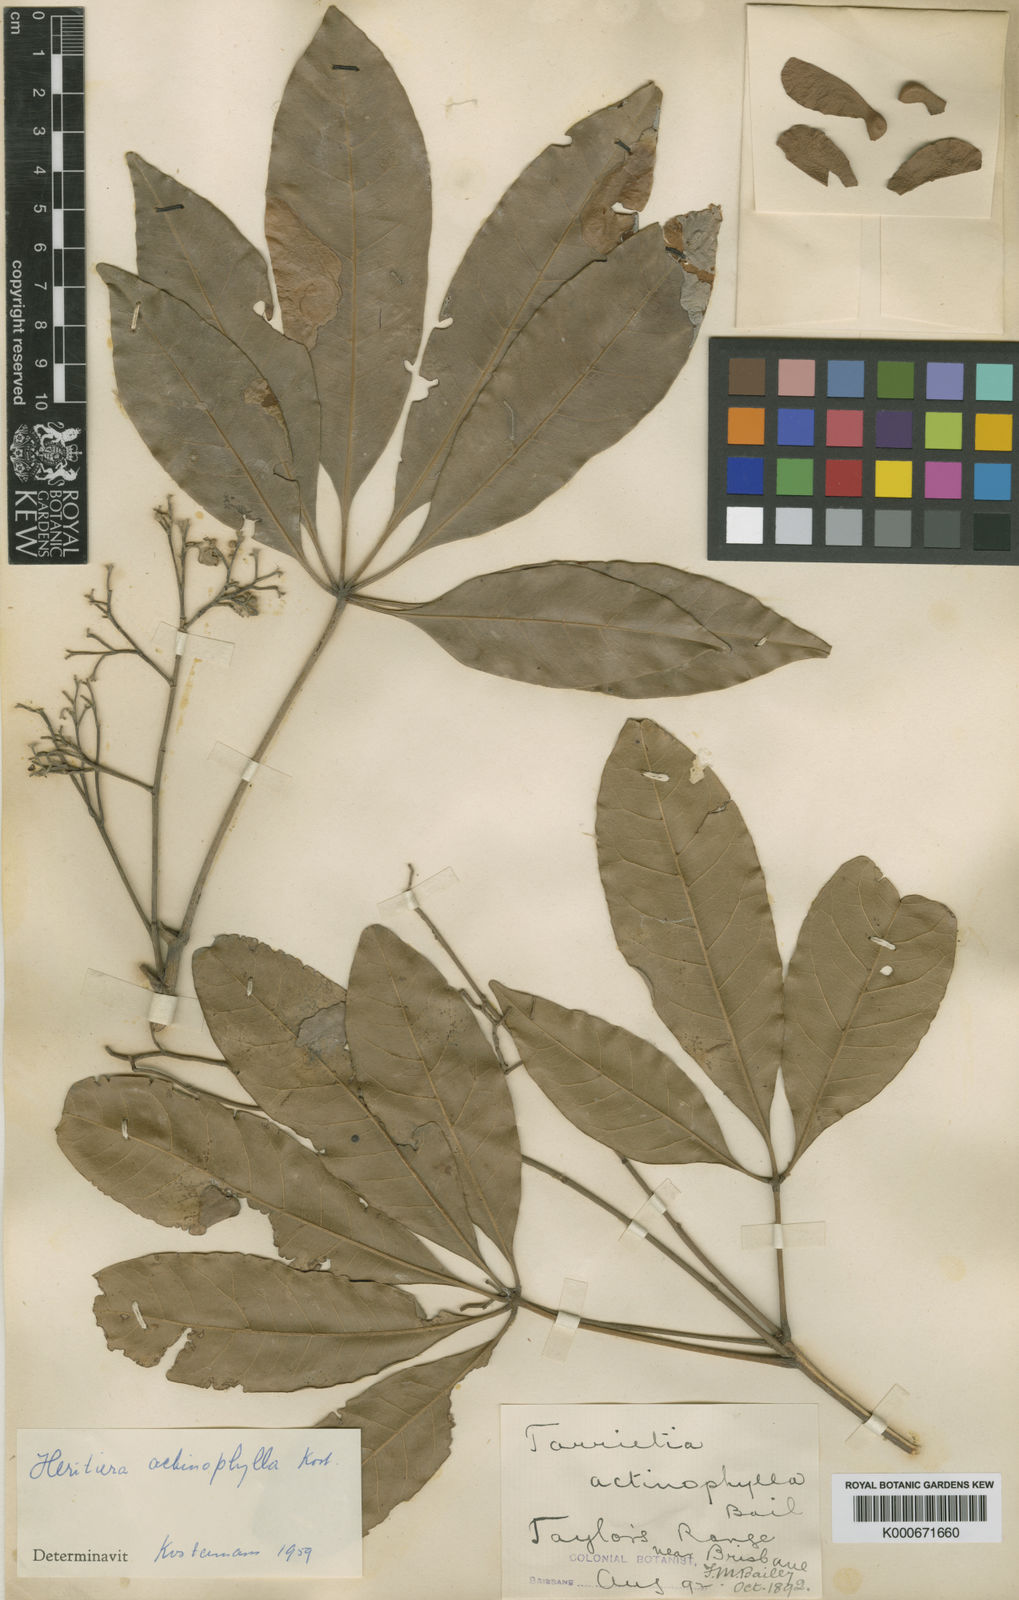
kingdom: Plantae
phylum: Tracheophyta
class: Magnoliopsida
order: Malvales
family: Malvaceae
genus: Argyrodendron
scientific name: Argyrodendron actinophyllum
